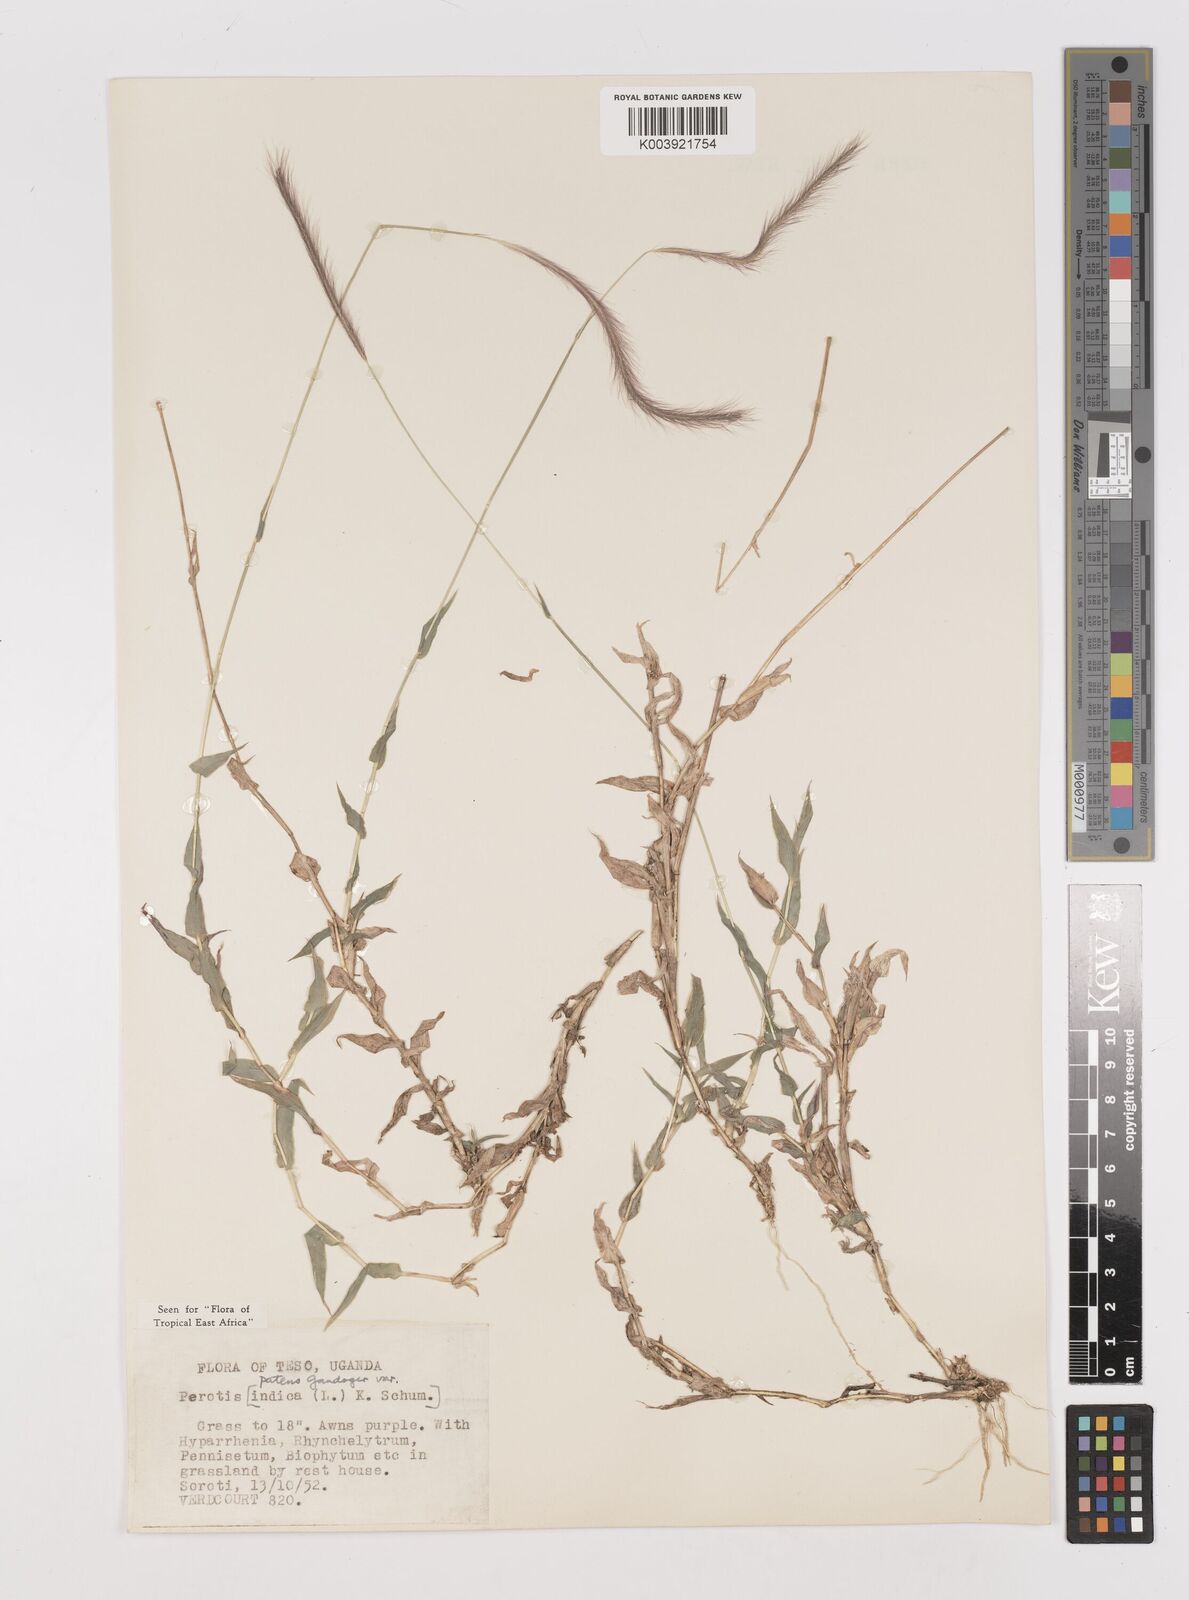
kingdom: Plantae
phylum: Tracheophyta
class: Liliopsida
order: Poales
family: Poaceae
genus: Perotis
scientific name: Perotis patens
